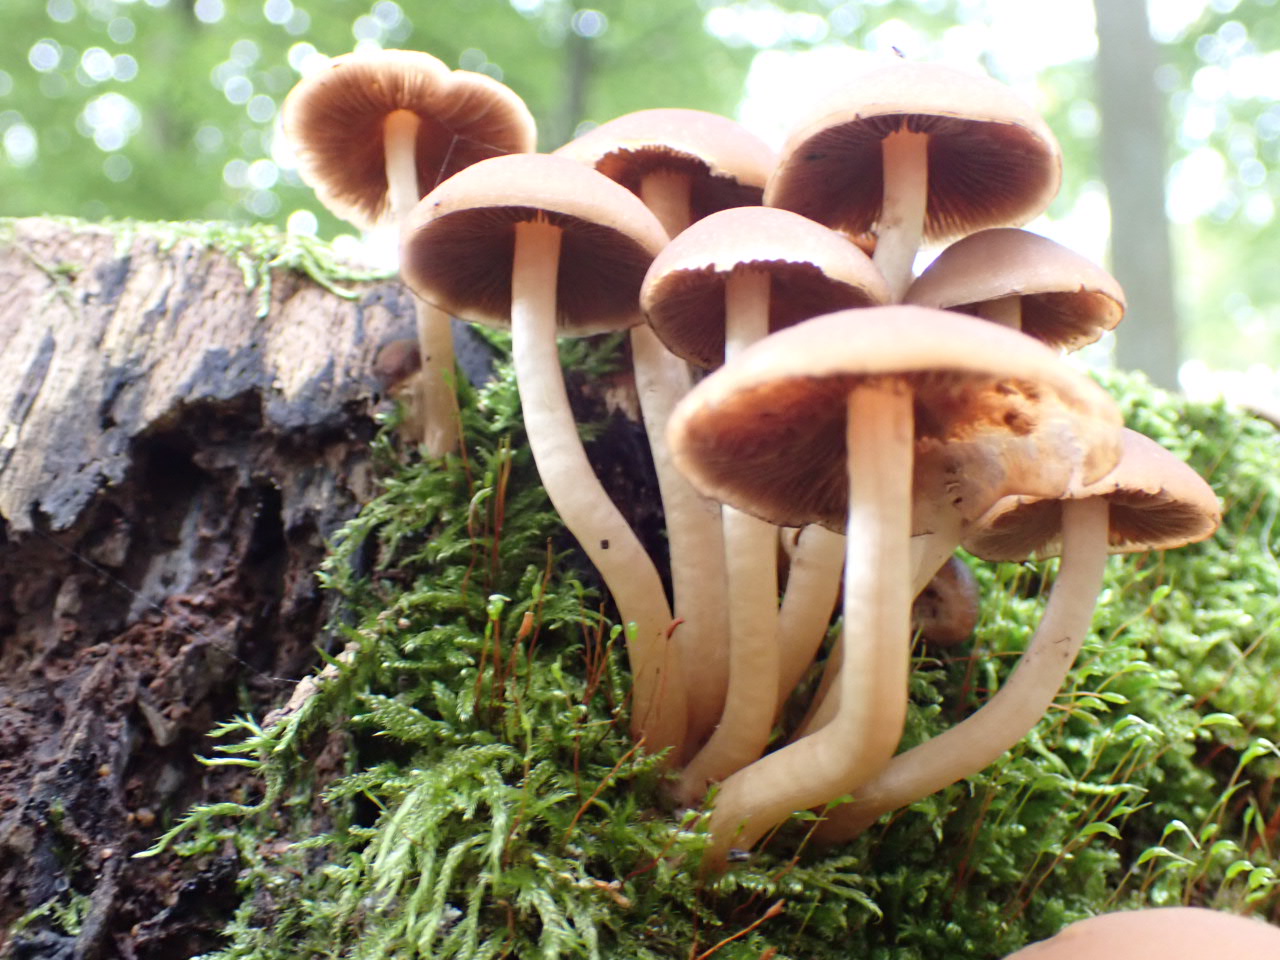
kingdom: Fungi
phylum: Basidiomycota
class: Agaricomycetes
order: Agaricales
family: Psathyrellaceae
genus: Psathyrella
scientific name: Psathyrella piluliformis
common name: lysstokket mørkhat
